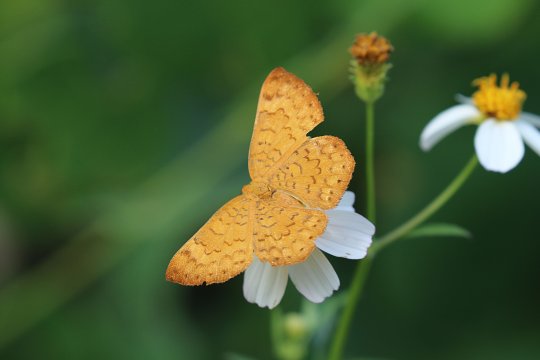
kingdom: Animalia
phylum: Arthropoda
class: Insecta
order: Lepidoptera
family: Lycaenidae
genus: Emesis
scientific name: Emesis vulpina
